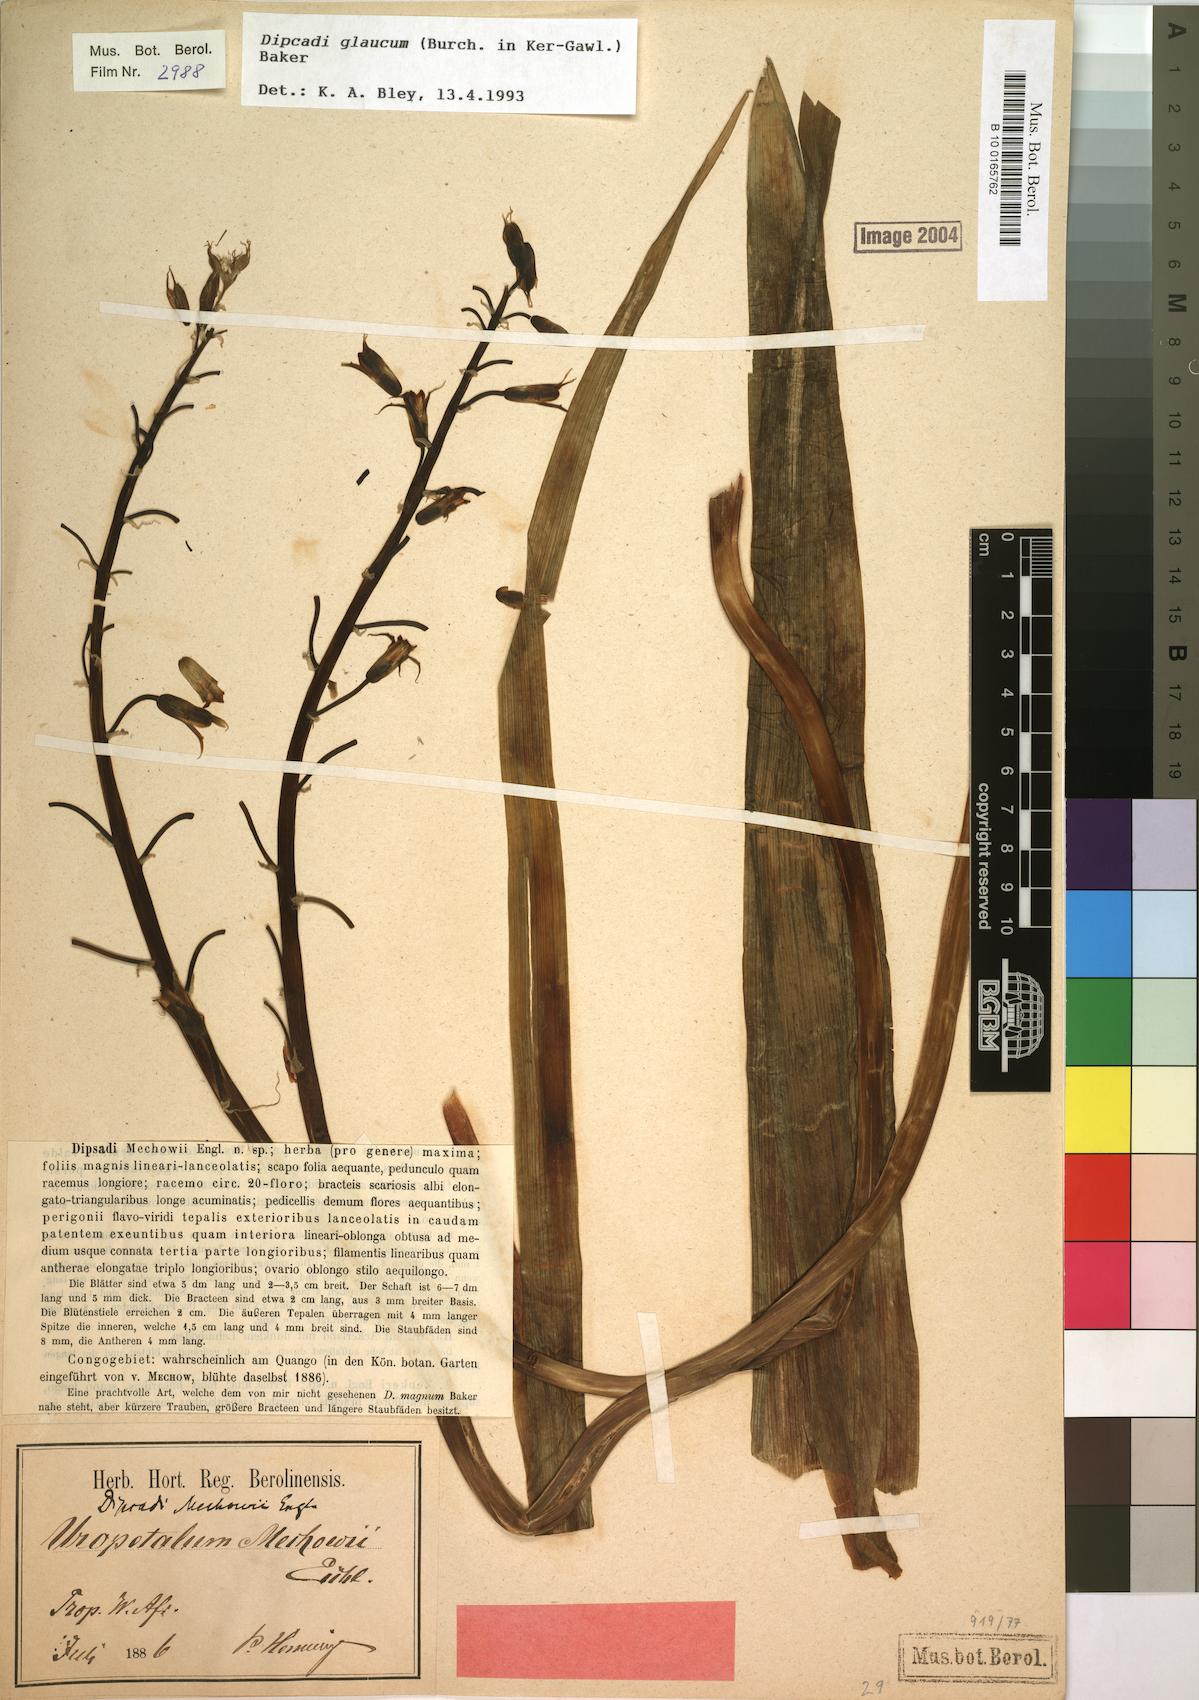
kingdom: Plantae
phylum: Tracheophyta
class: Liliopsida
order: Asparagales
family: Asparagaceae
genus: Dipcadi
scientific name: Dipcadi glaucum
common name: Wild onion
